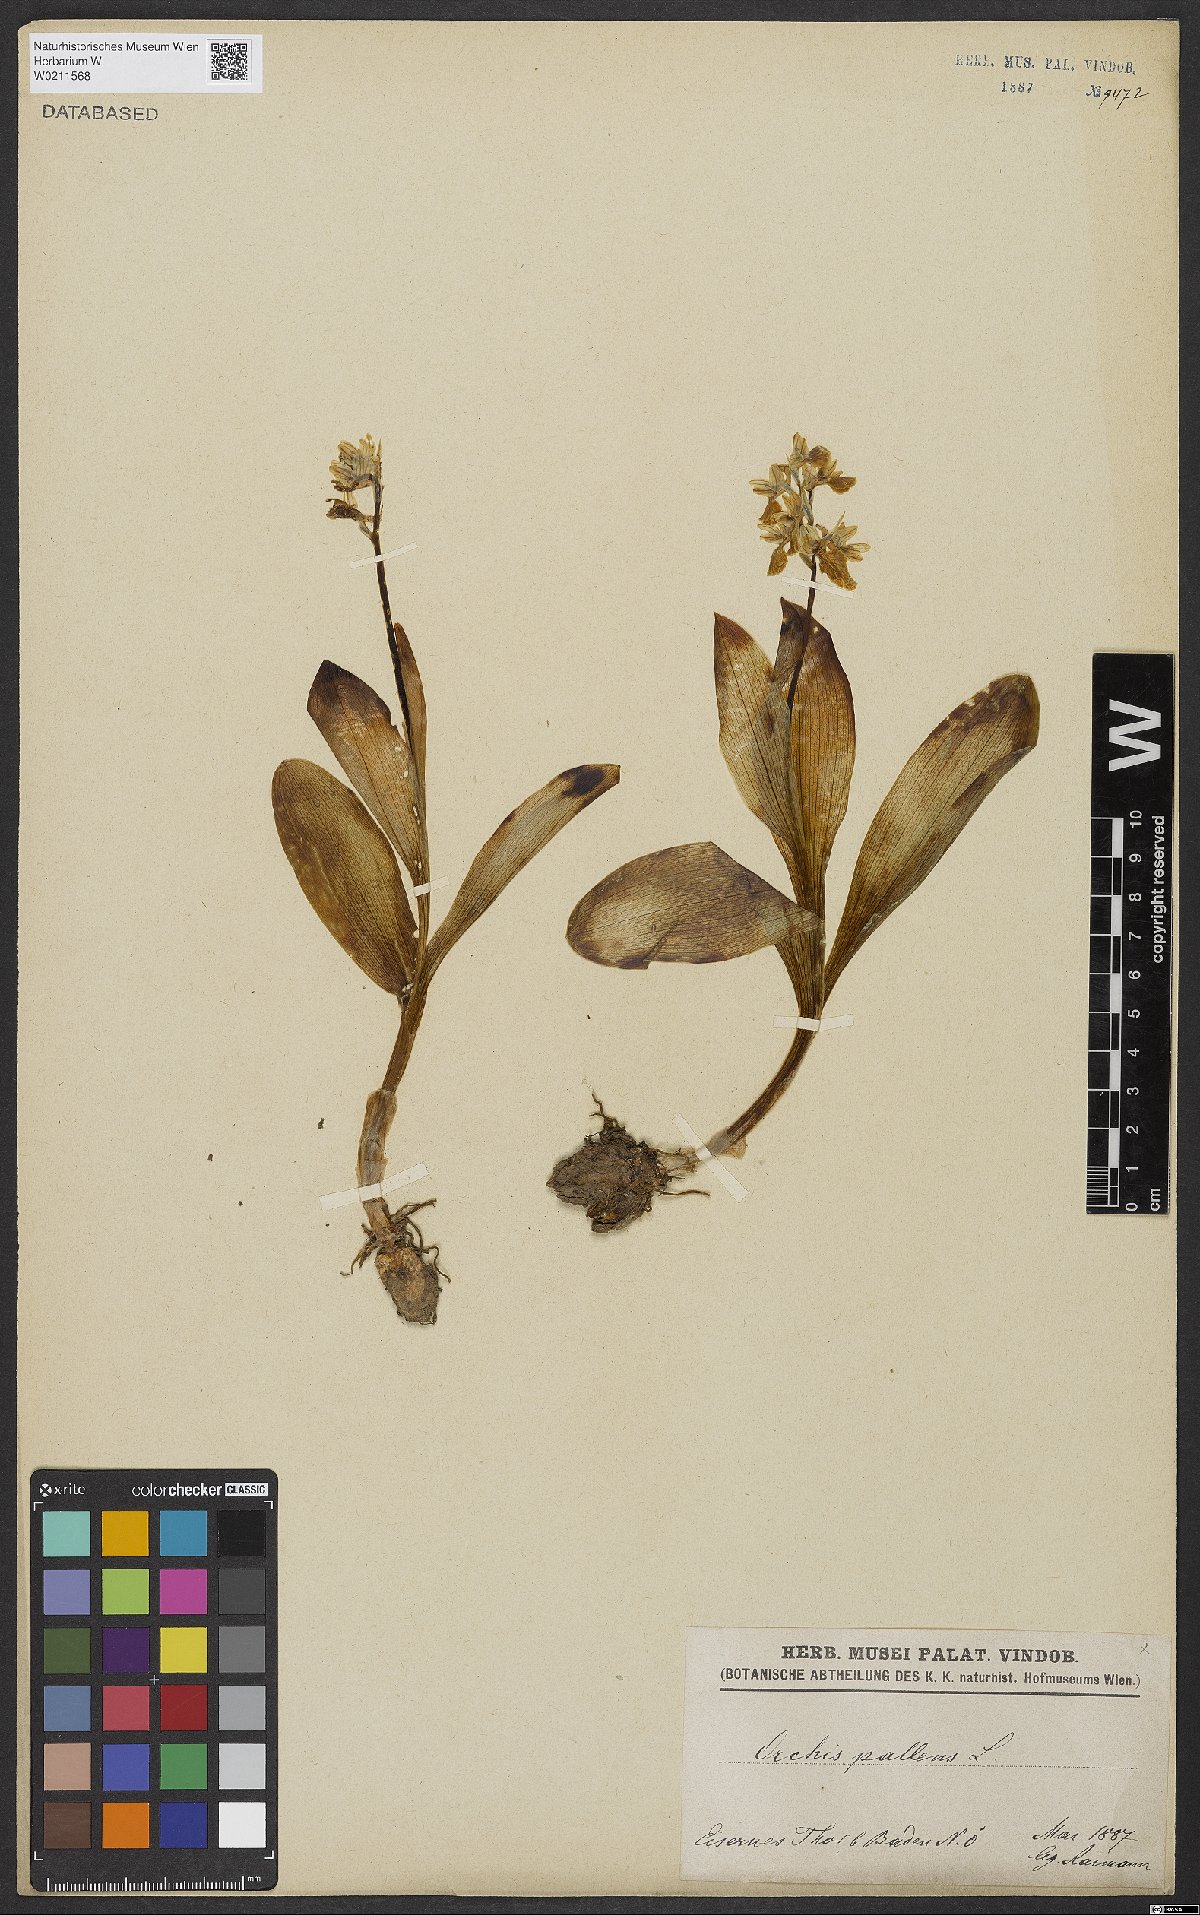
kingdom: Plantae
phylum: Tracheophyta
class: Liliopsida
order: Asparagales
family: Orchidaceae
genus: Orchis
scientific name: Orchis pallens
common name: Pale-flowered orchid
